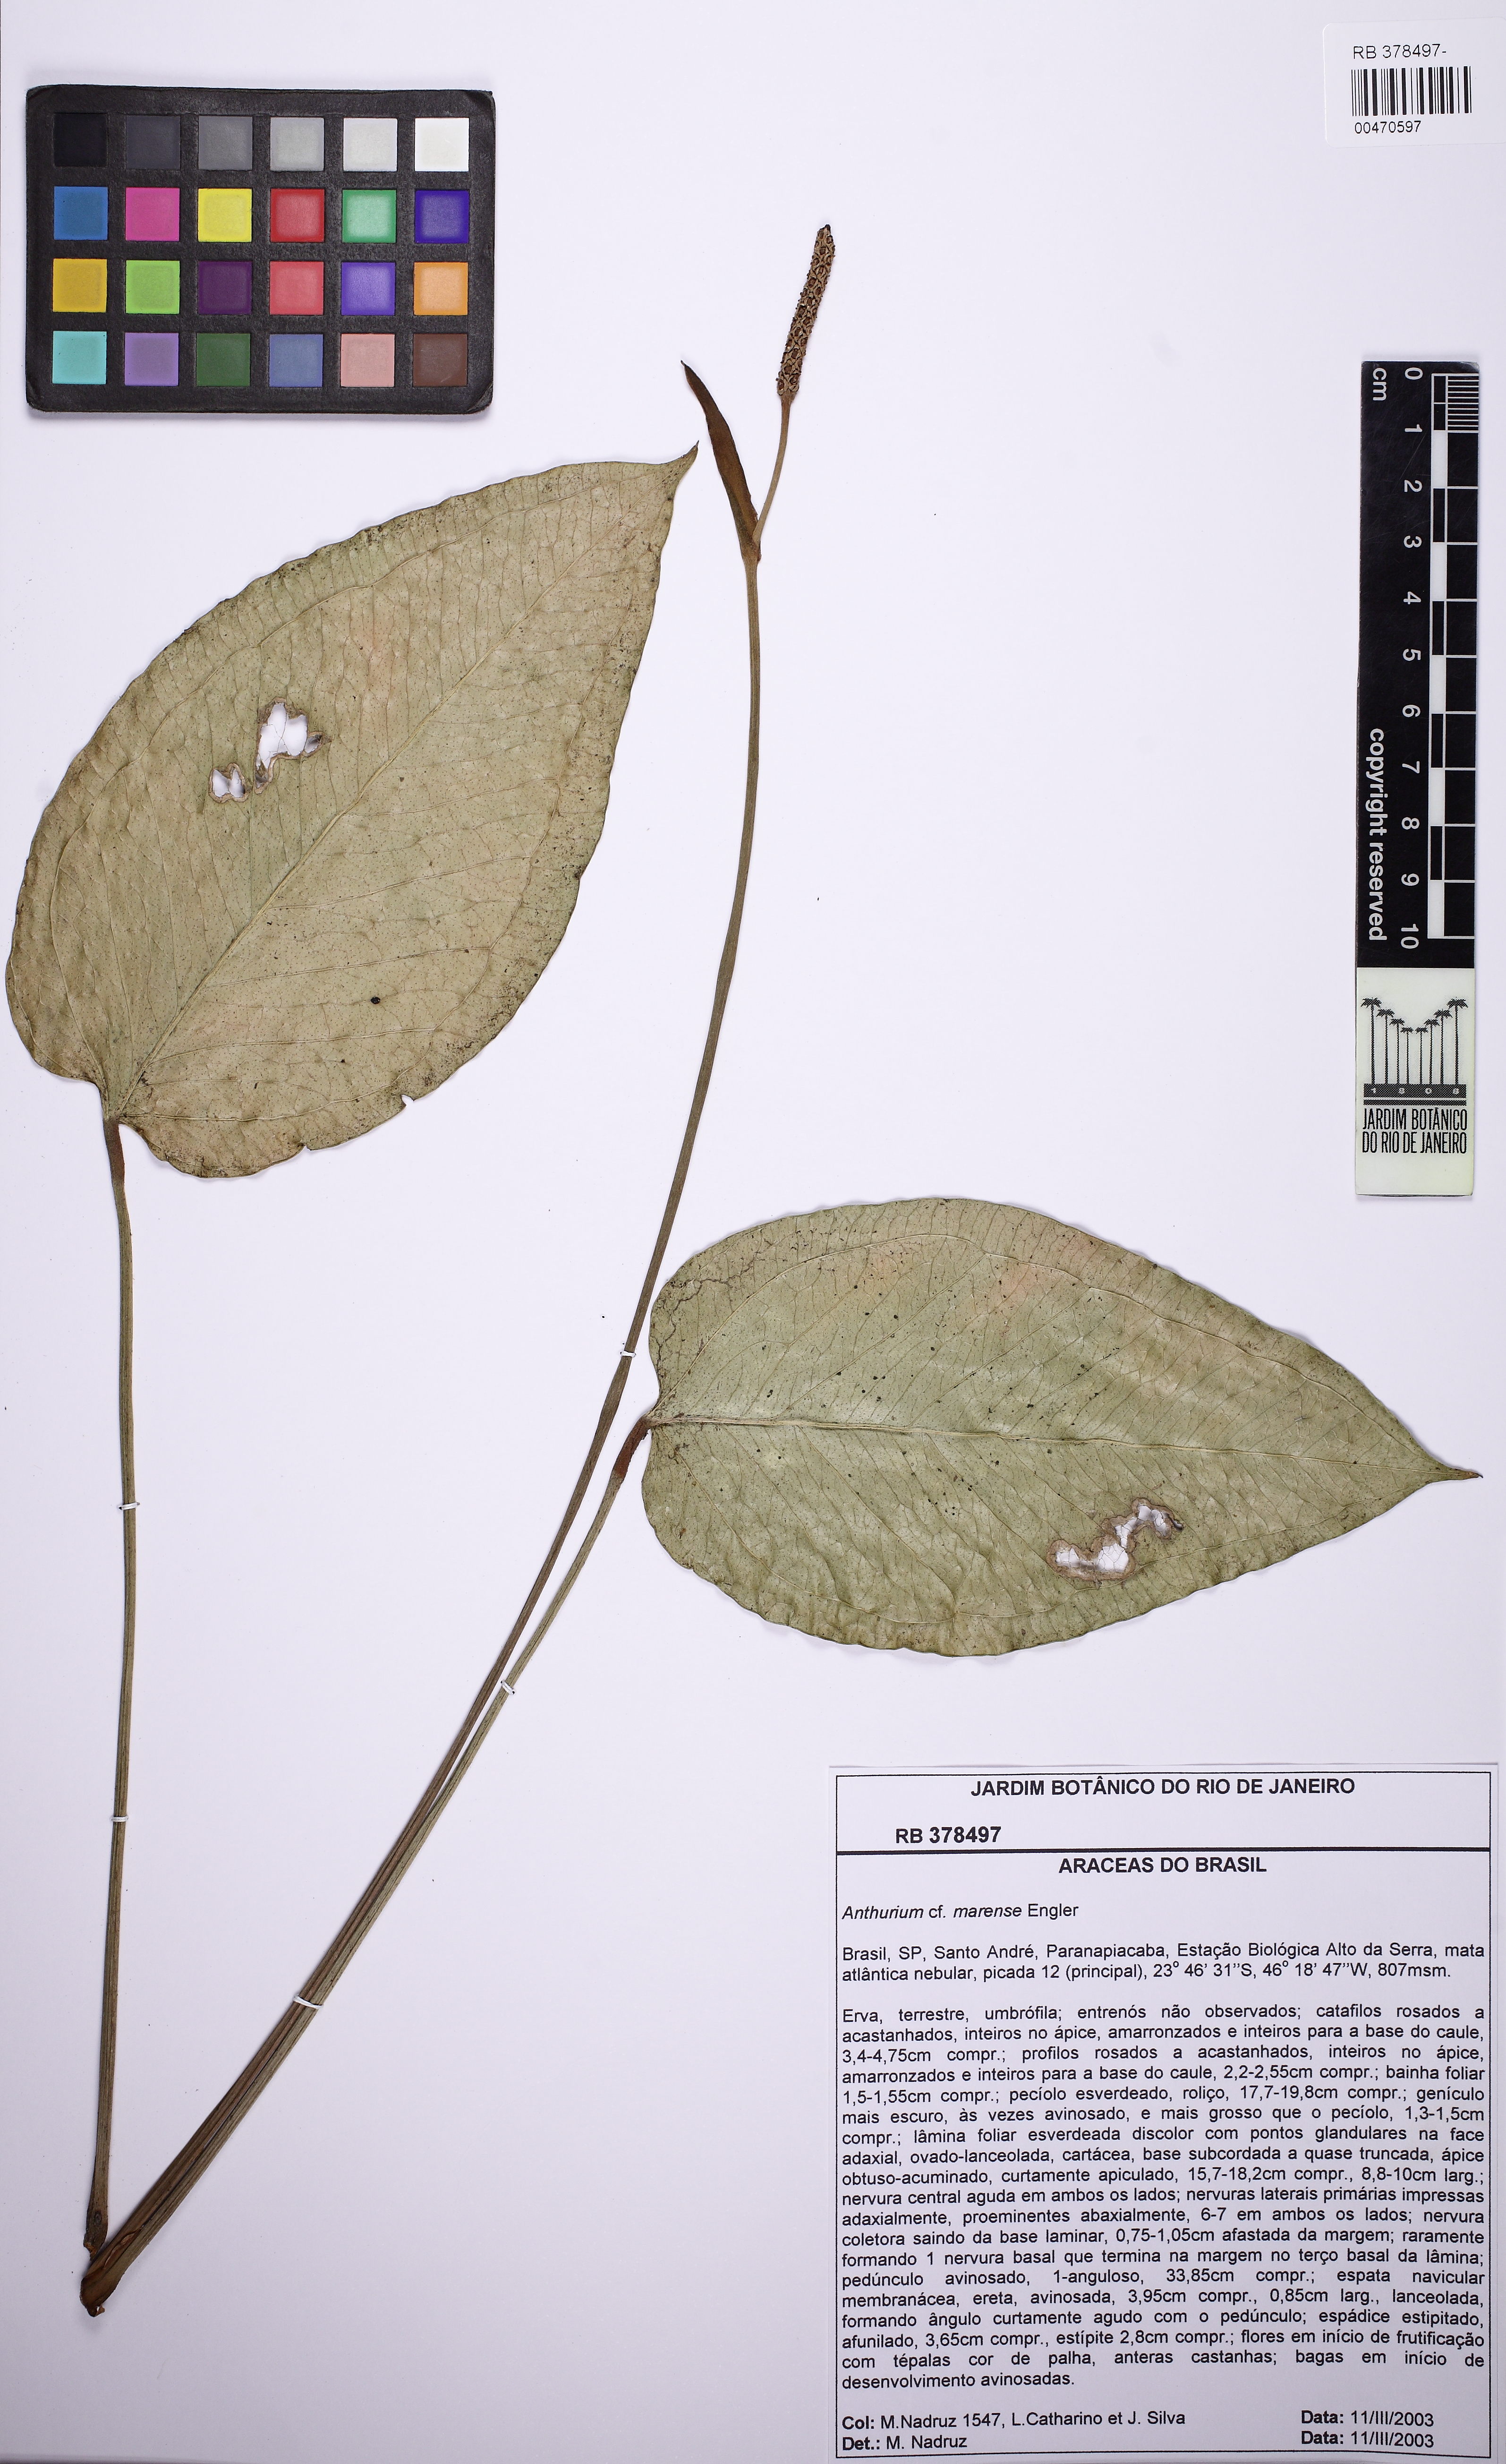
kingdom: Plantae
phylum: Tracheophyta
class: Liliopsida
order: Alismatales
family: Araceae
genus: Anthurium
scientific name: Anthurium marense
